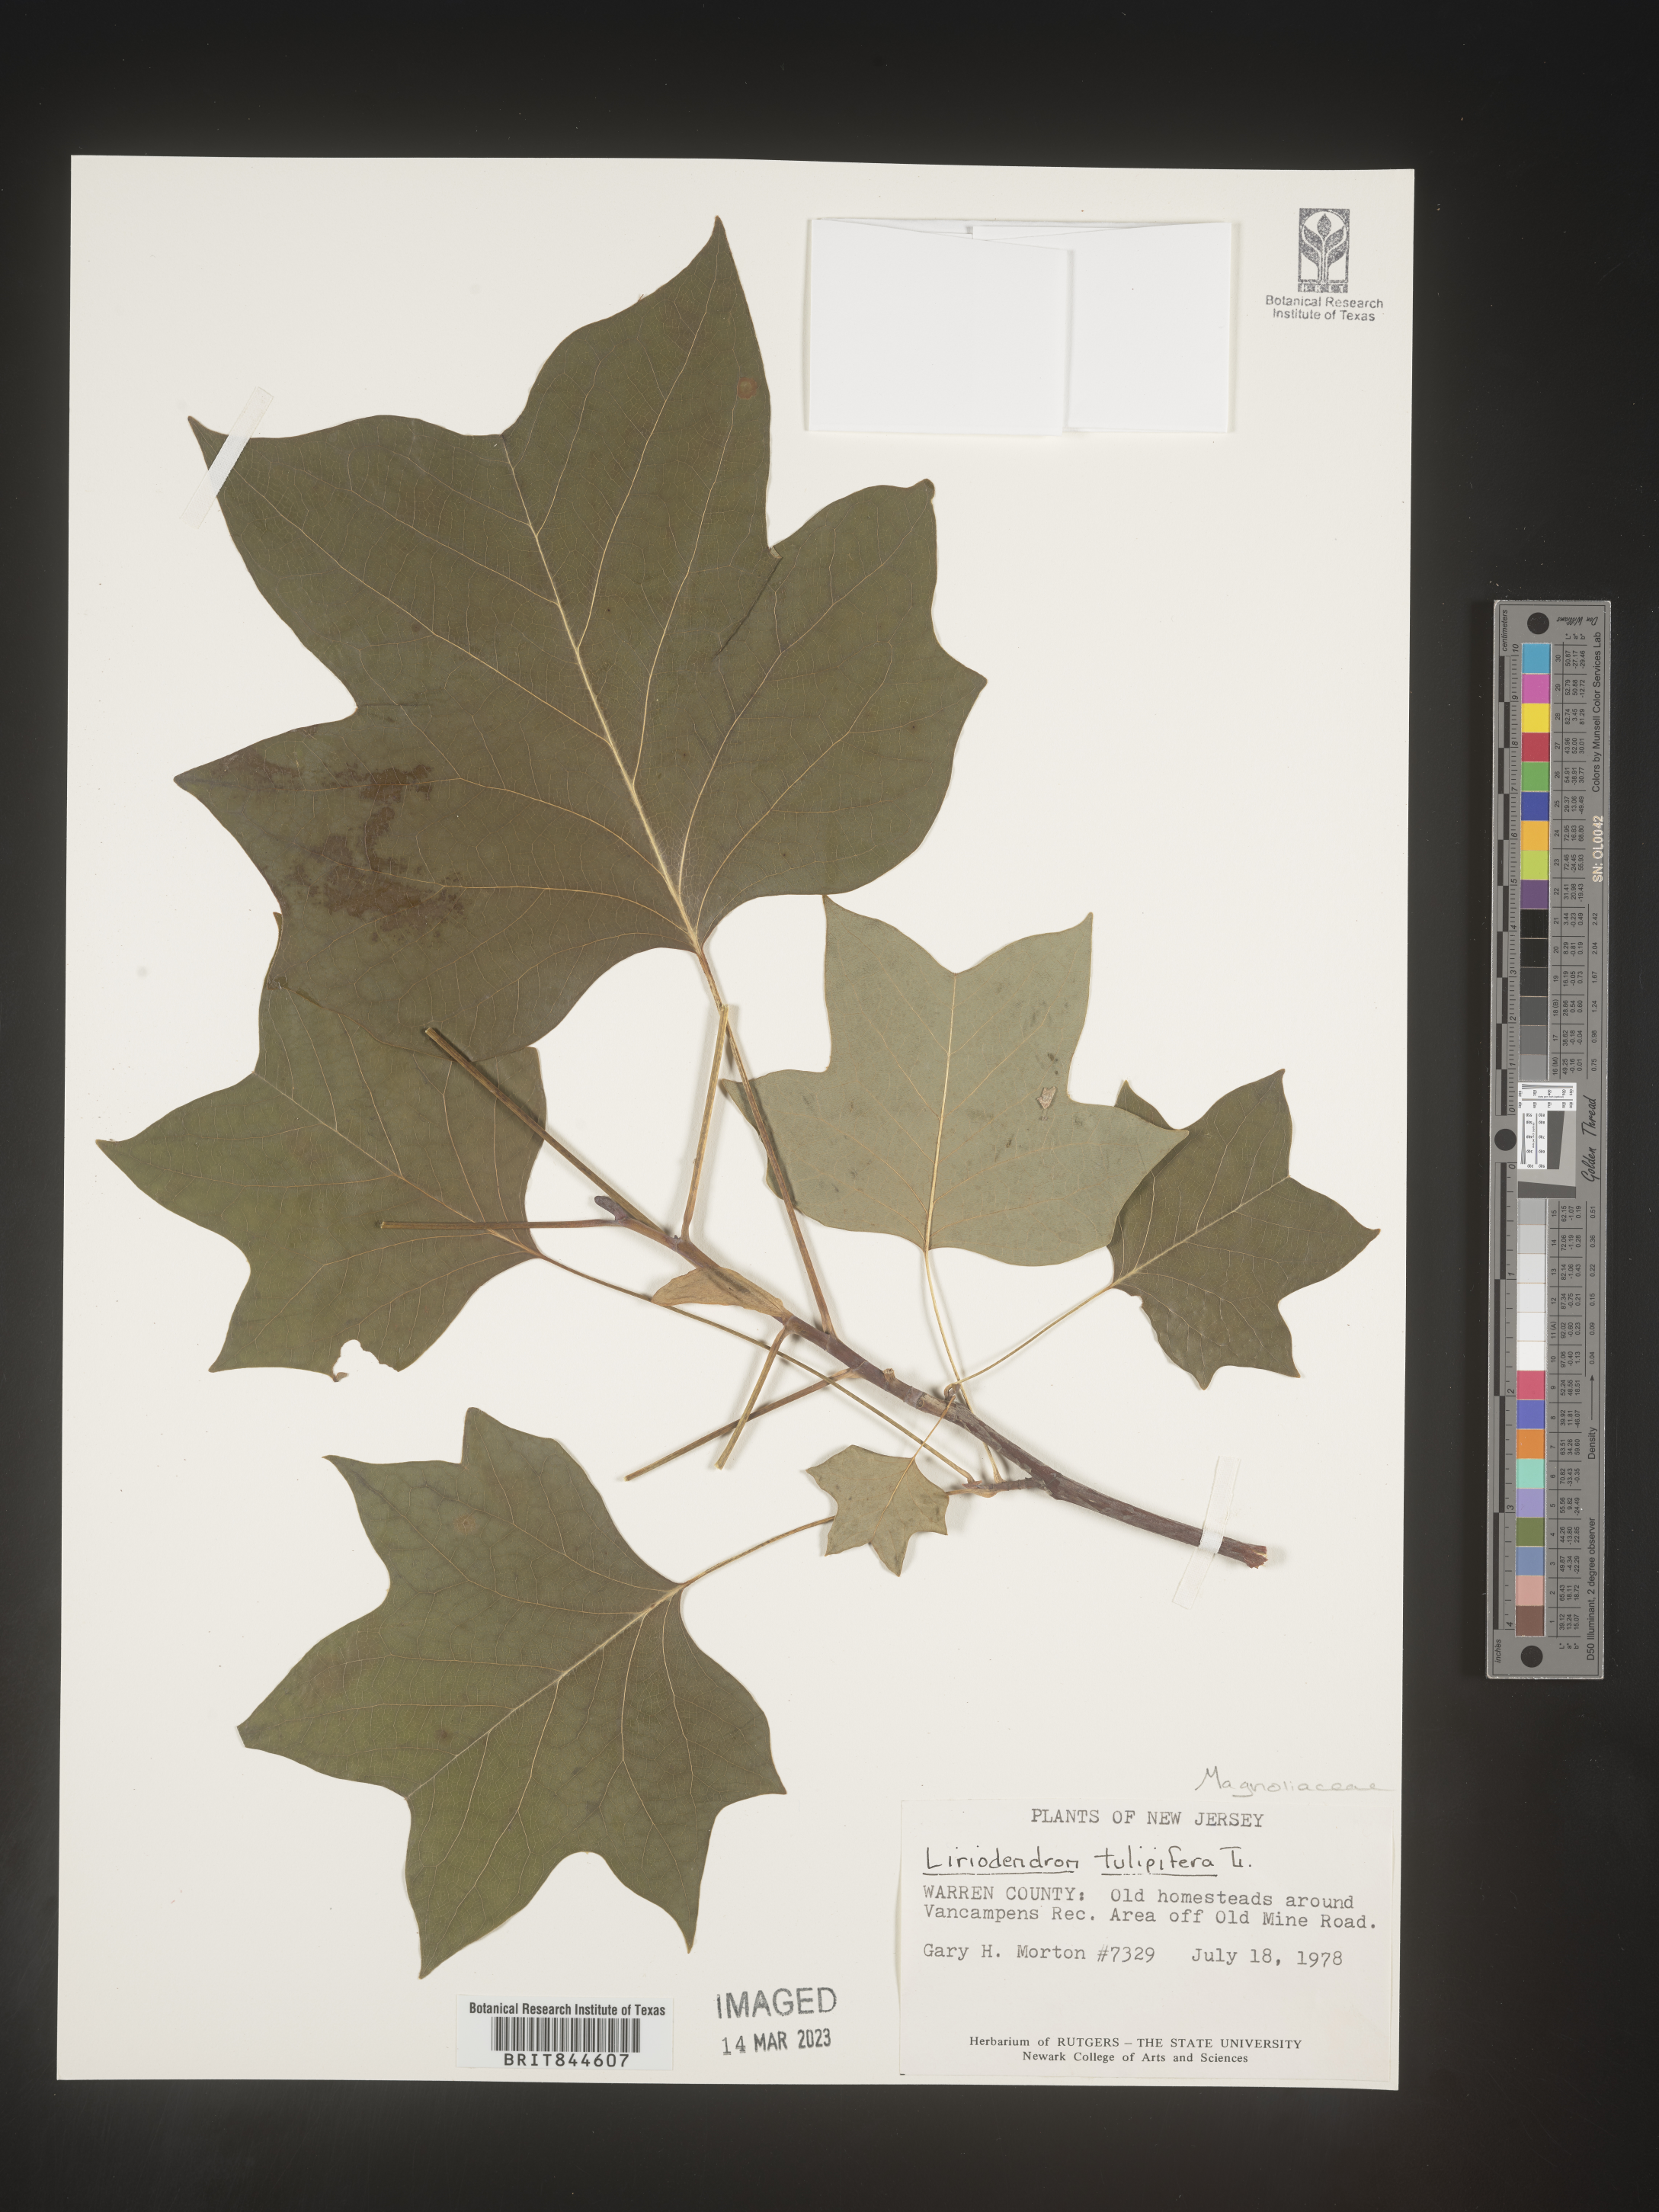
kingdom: Plantae
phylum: Tracheophyta
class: Magnoliopsida
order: Magnoliales
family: Magnoliaceae
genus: Liriodendron
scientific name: Liriodendron tulipifera
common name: Tulip tree
